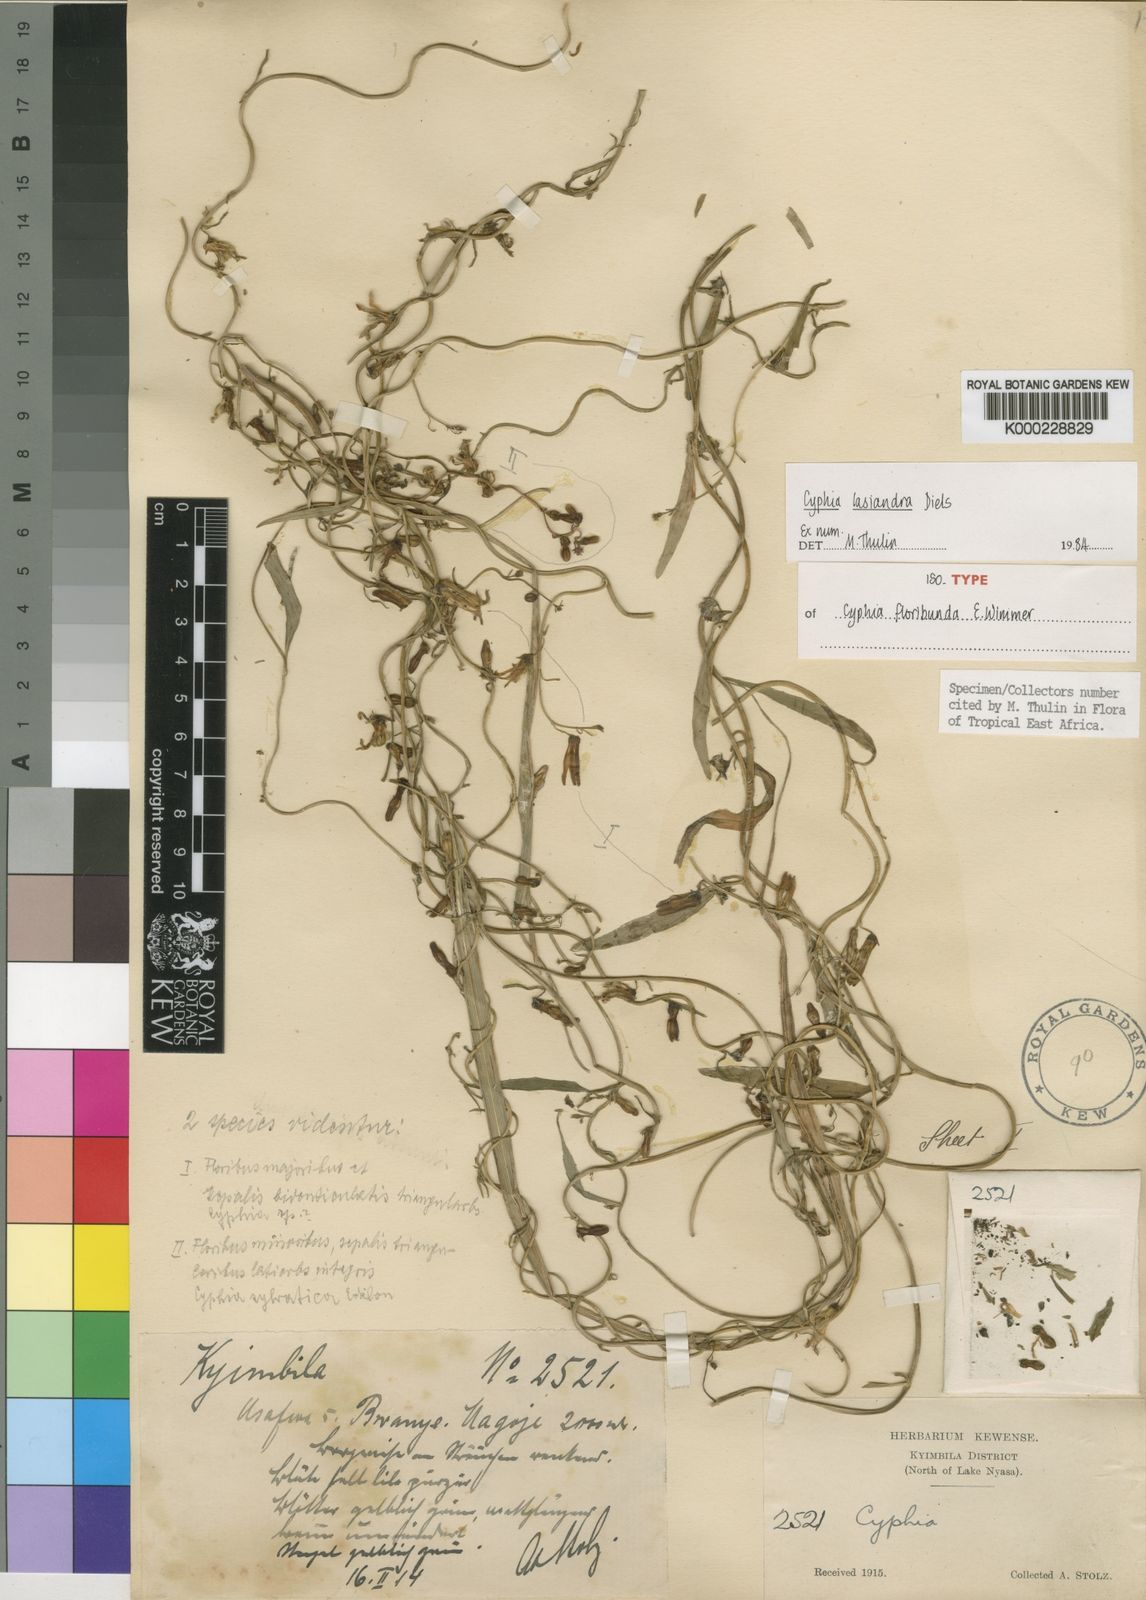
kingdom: Plantae
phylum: Tracheophyta
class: Magnoliopsida
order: Asterales
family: Campanulaceae
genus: Cyphia
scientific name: Cyphia lasiandra
